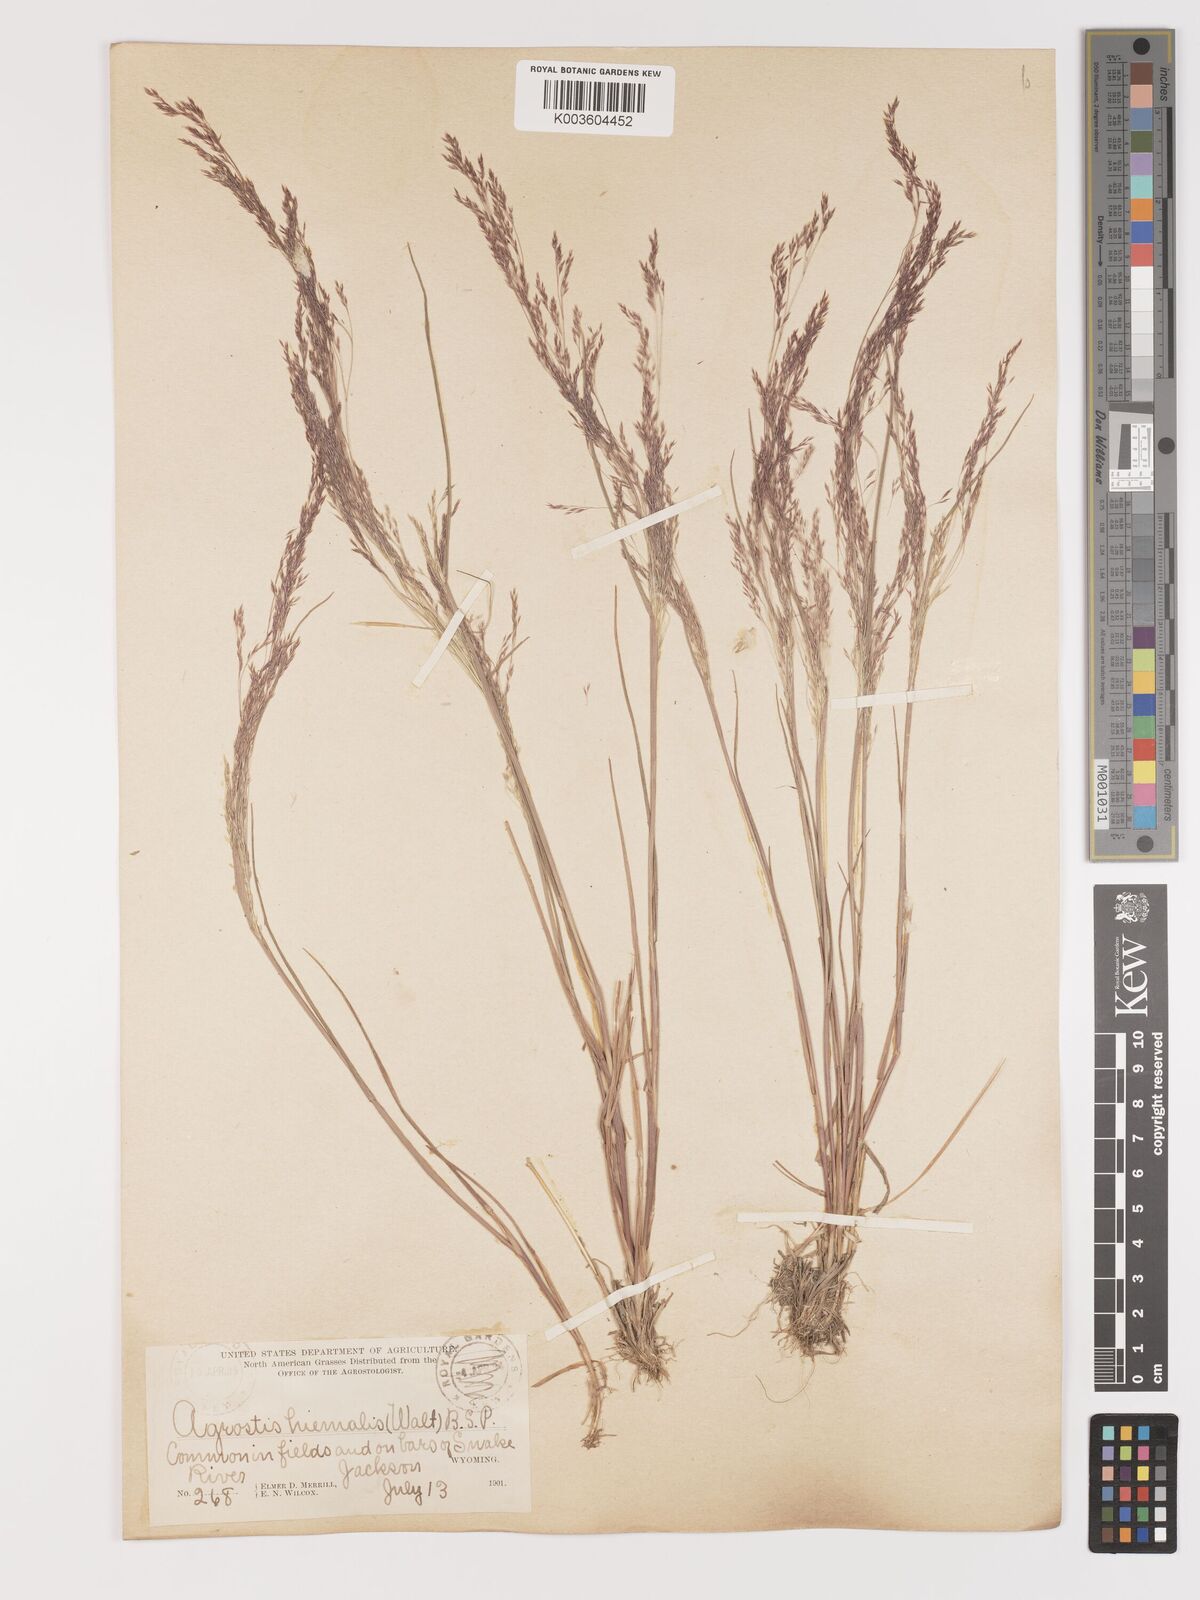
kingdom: Plantae
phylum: Tracheophyta
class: Liliopsida
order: Poales
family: Poaceae
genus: Agrostis
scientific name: Agrostis hyemalis
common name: Small bent
